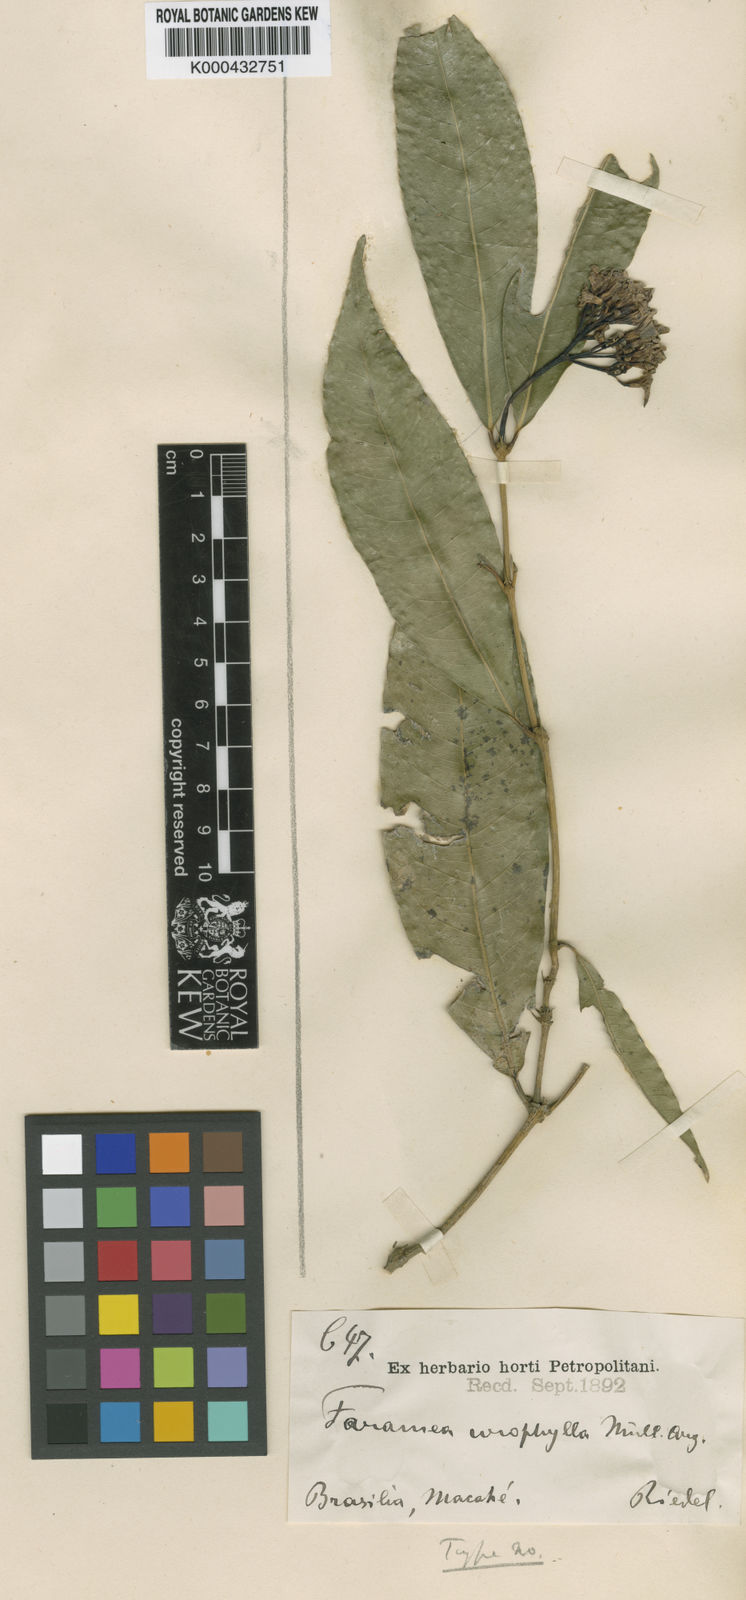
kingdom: Plantae
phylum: Tracheophyta
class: Magnoliopsida
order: Gentianales
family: Rubiaceae
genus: Faramea
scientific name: Faramea
